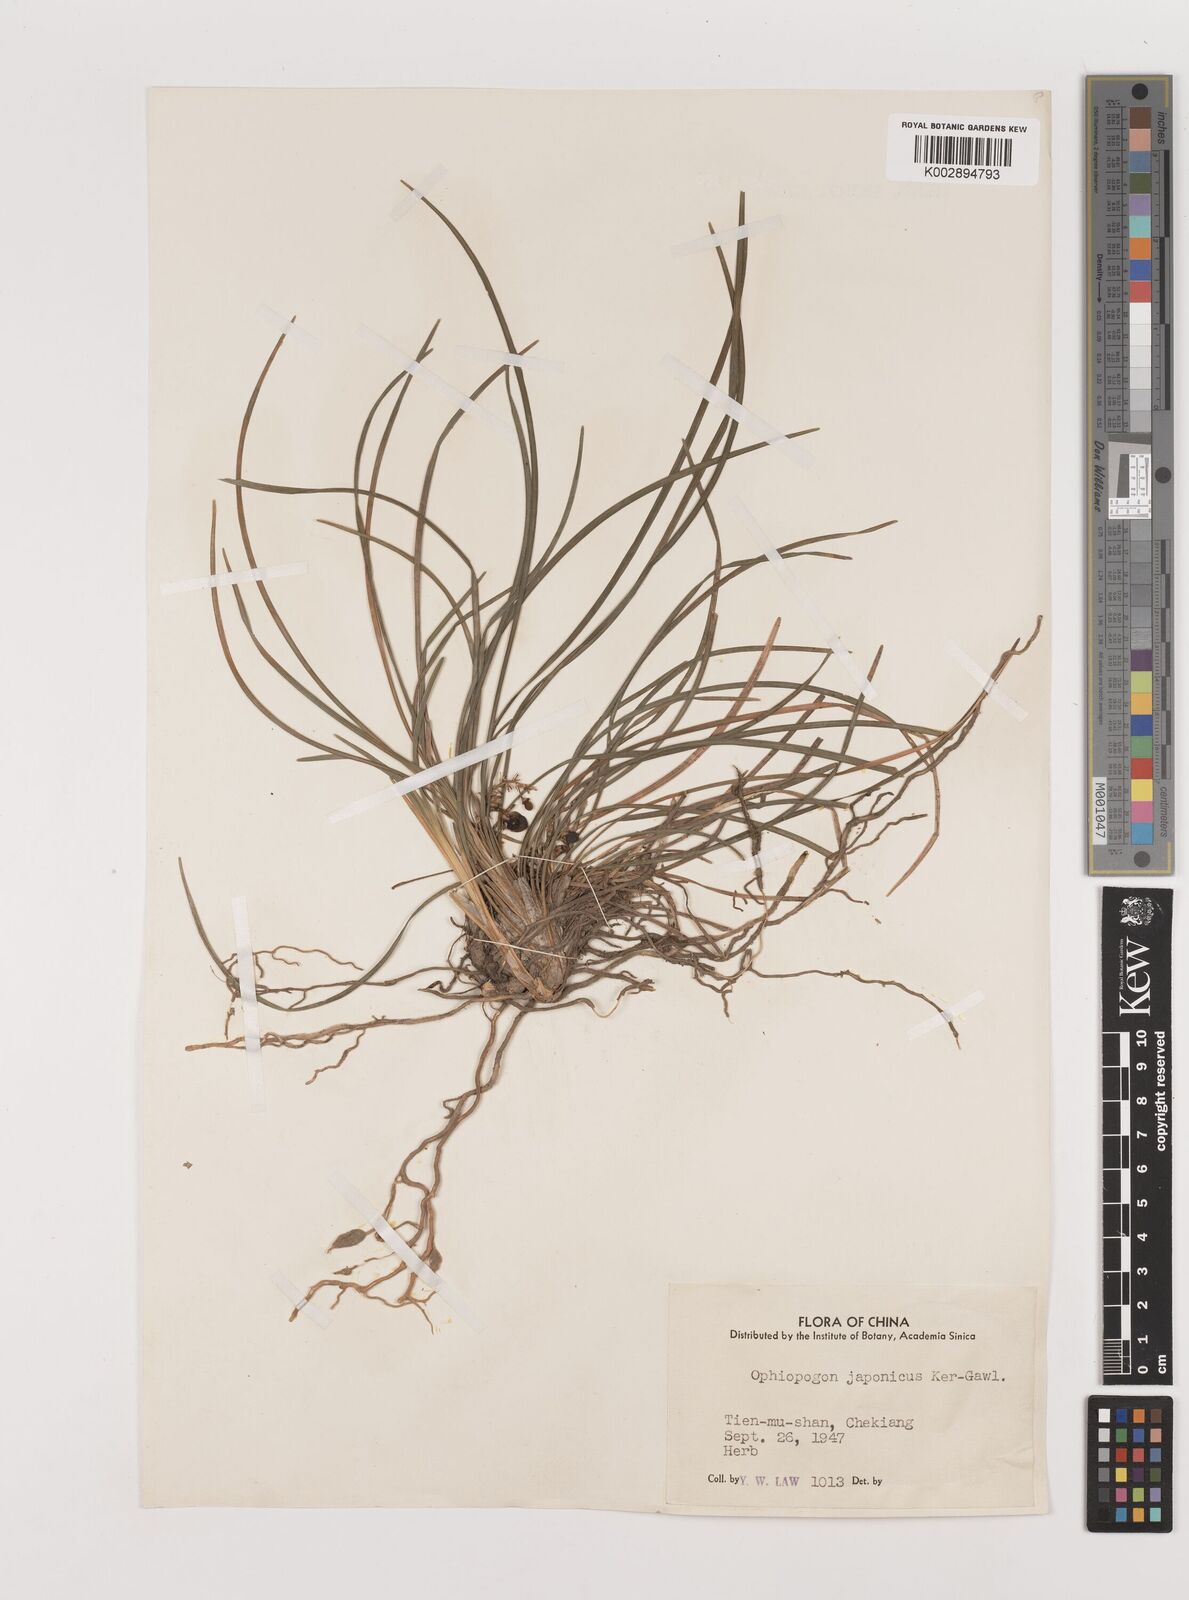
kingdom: Plantae
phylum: Tracheophyta
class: Liliopsida
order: Asparagales
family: Asparagaceae
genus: Ophiopogon
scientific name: Ophiopogon japonicus
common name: Dwarf lilyturf
